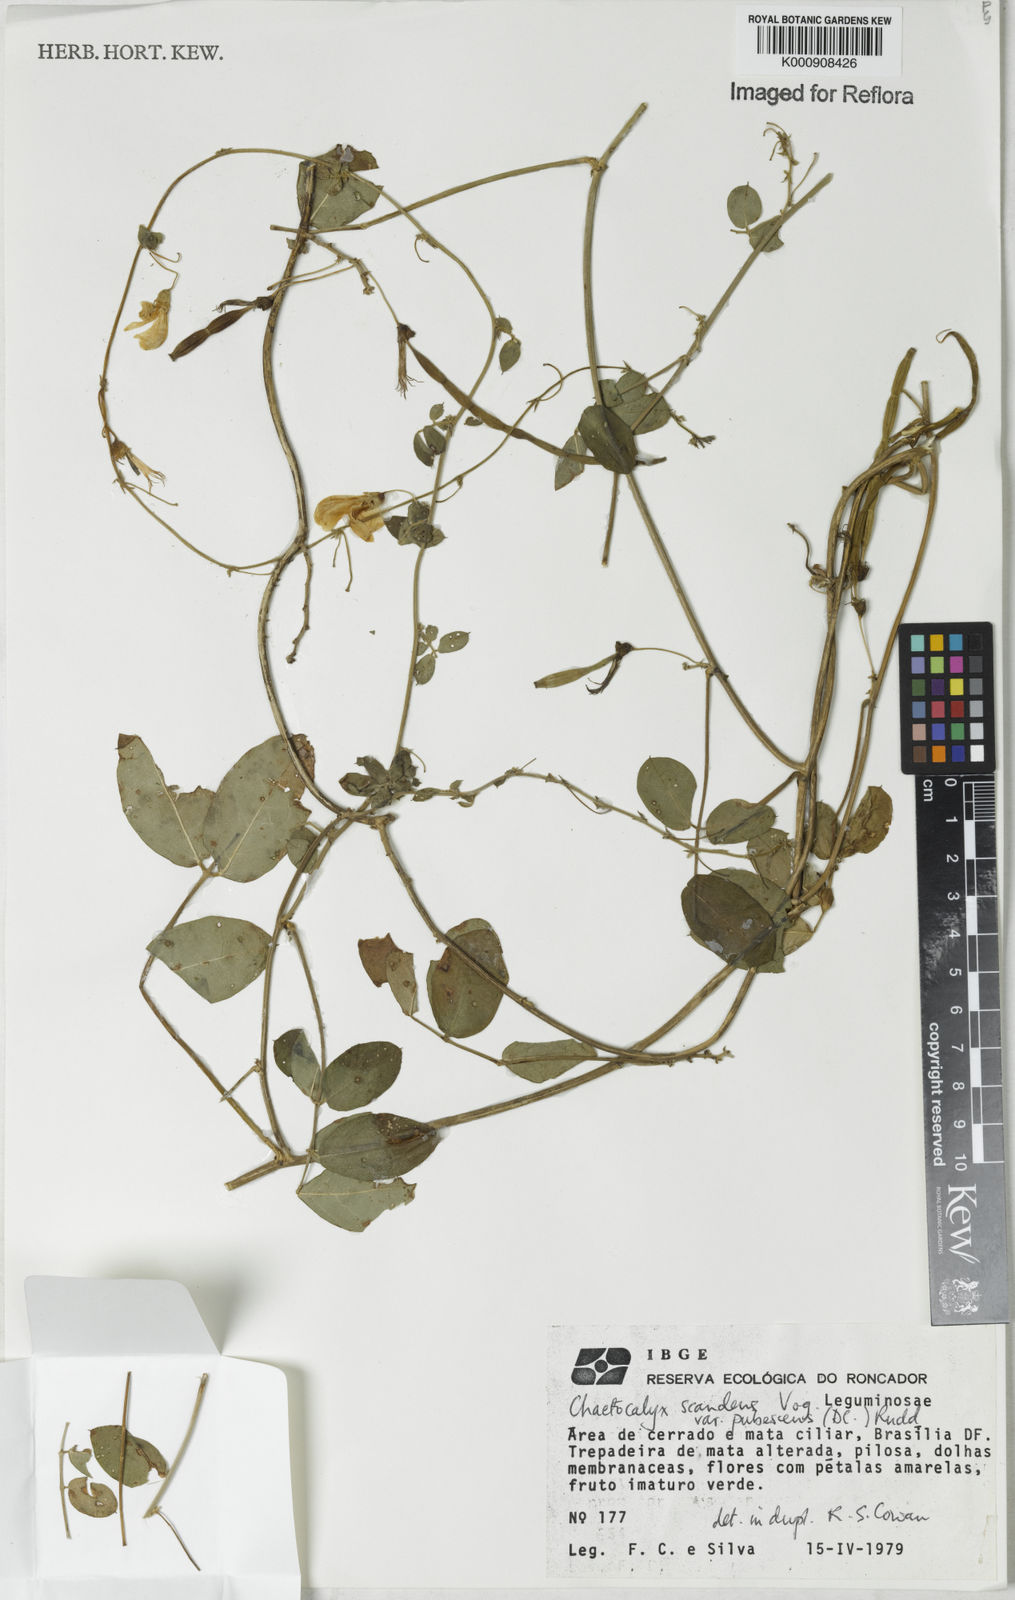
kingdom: Plantae
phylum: Tracheophyta
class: Magnoliopsida
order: Fabales
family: Fabaceae
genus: Nissolia
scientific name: Nissolia vincentina
